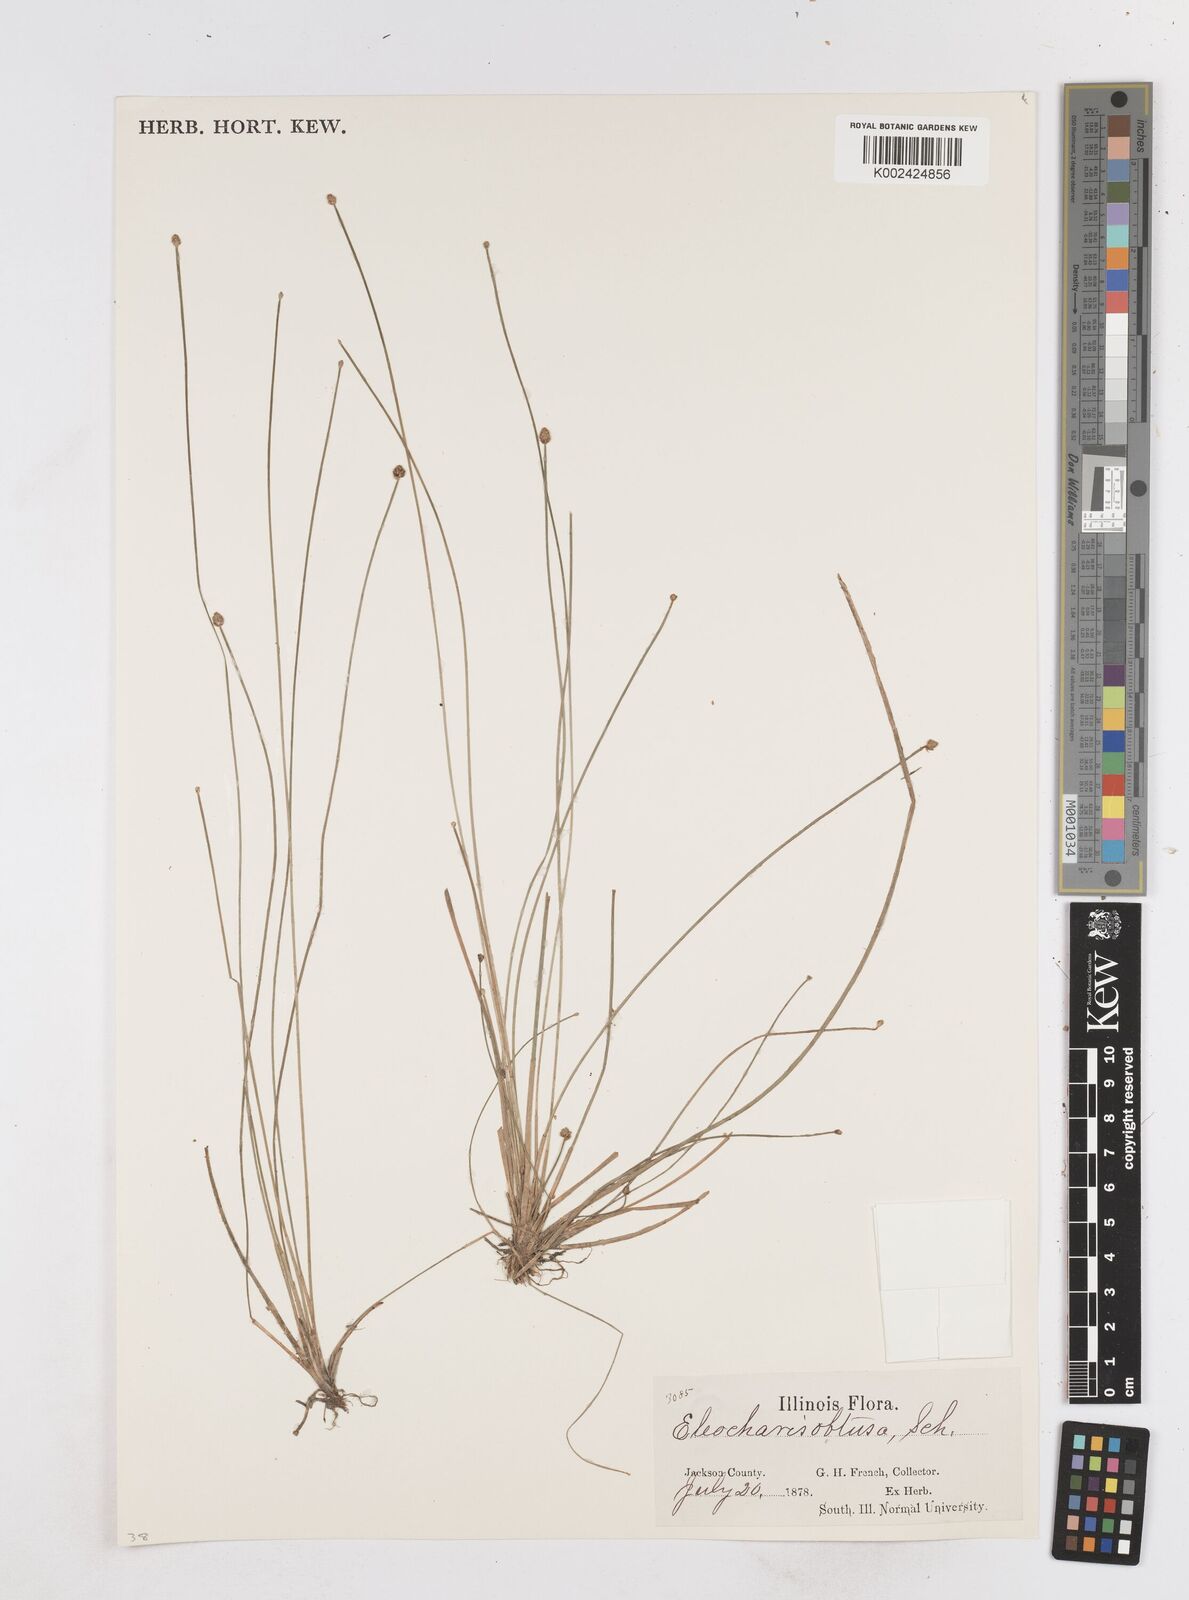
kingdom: Plantae
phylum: Tracheophyta
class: Liliopsida
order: Poales
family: Cyperaceae
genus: Eleocharis
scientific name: Eleocharis obtusa
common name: Blunt spikerush
